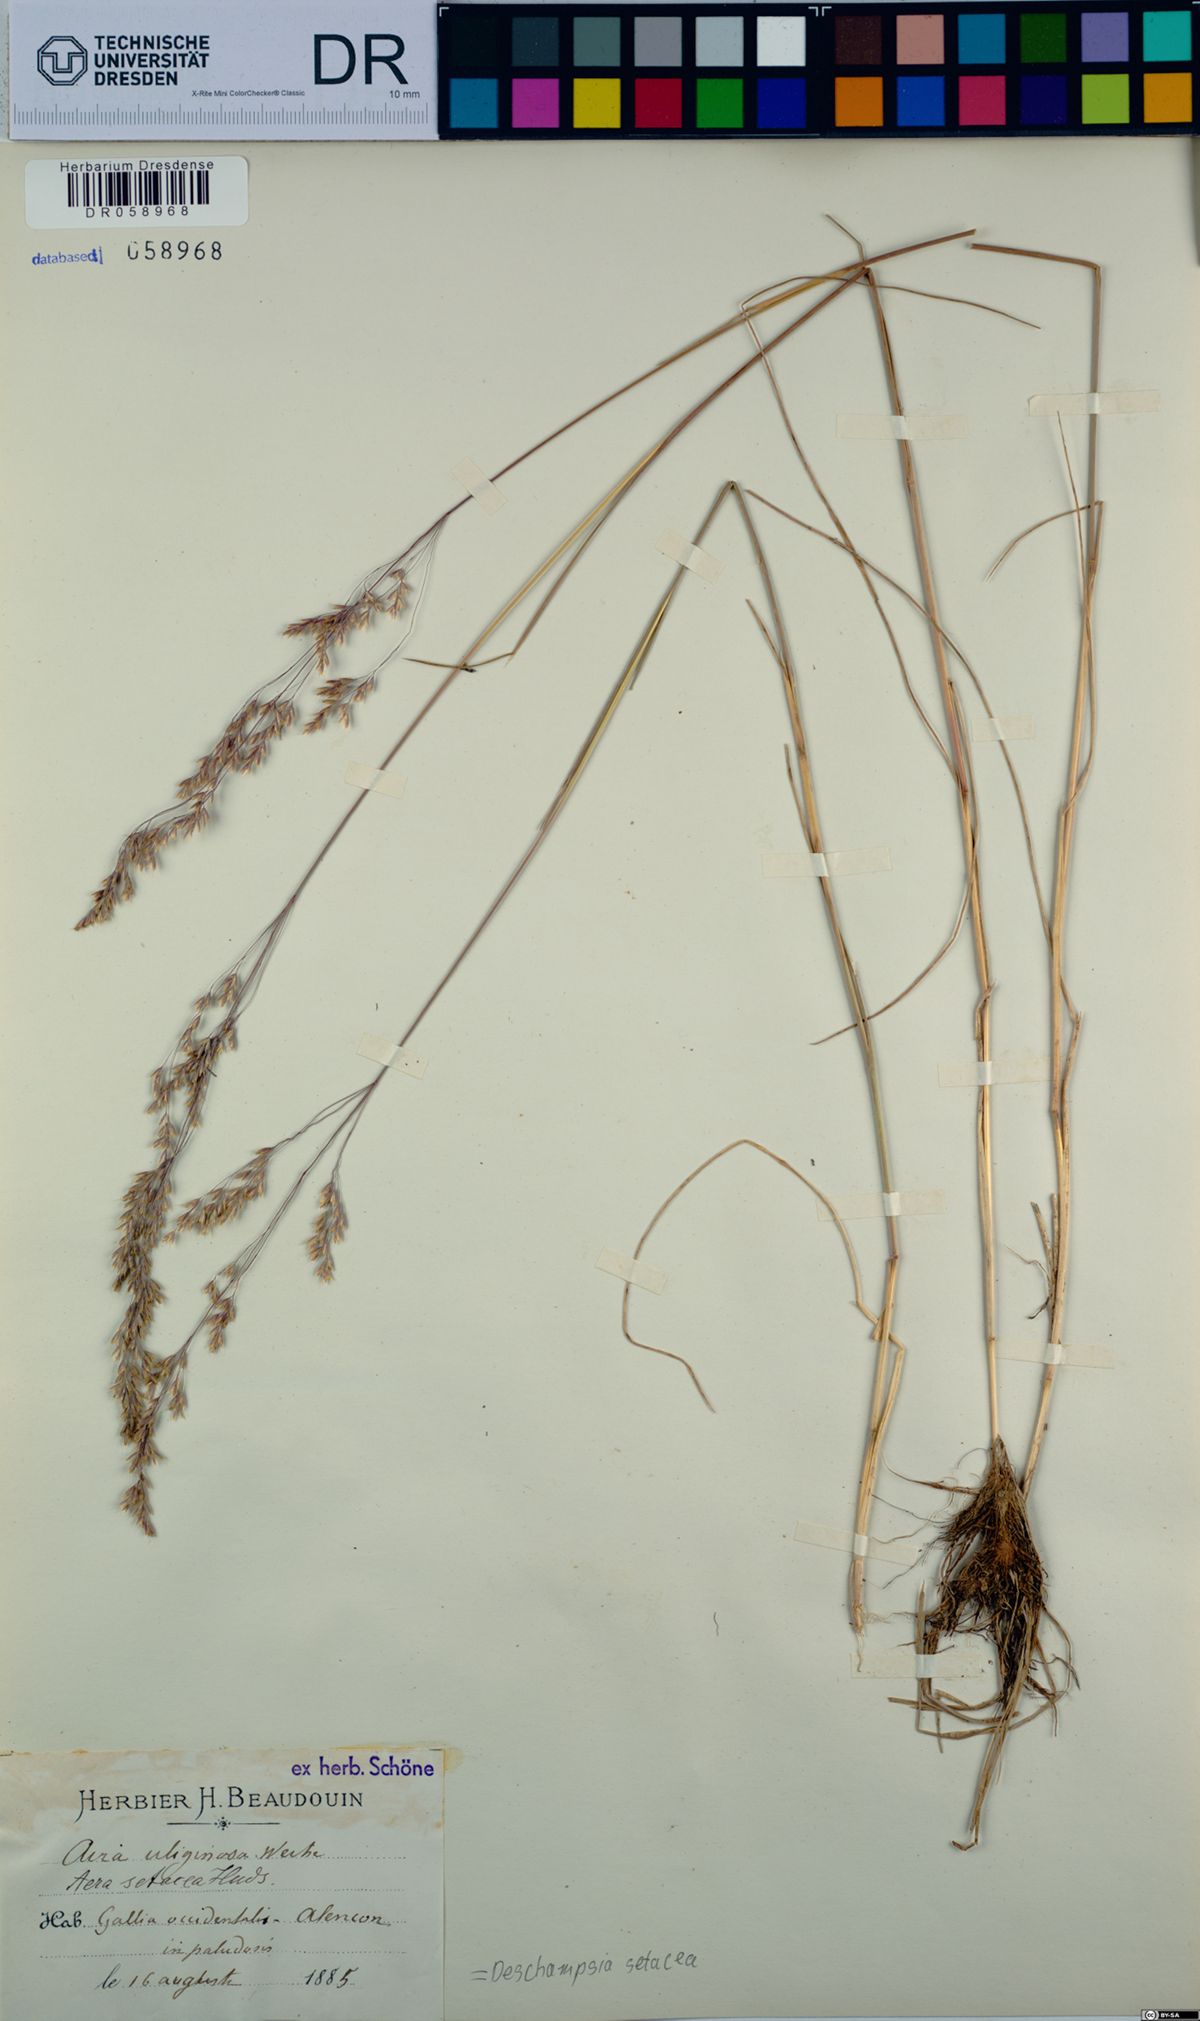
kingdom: Plantae
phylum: Tracheophyta
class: Liliopsida
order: Poales
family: Poaceae
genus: Deschampsia
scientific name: Deschampsia setacea
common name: Bog hair-grass
